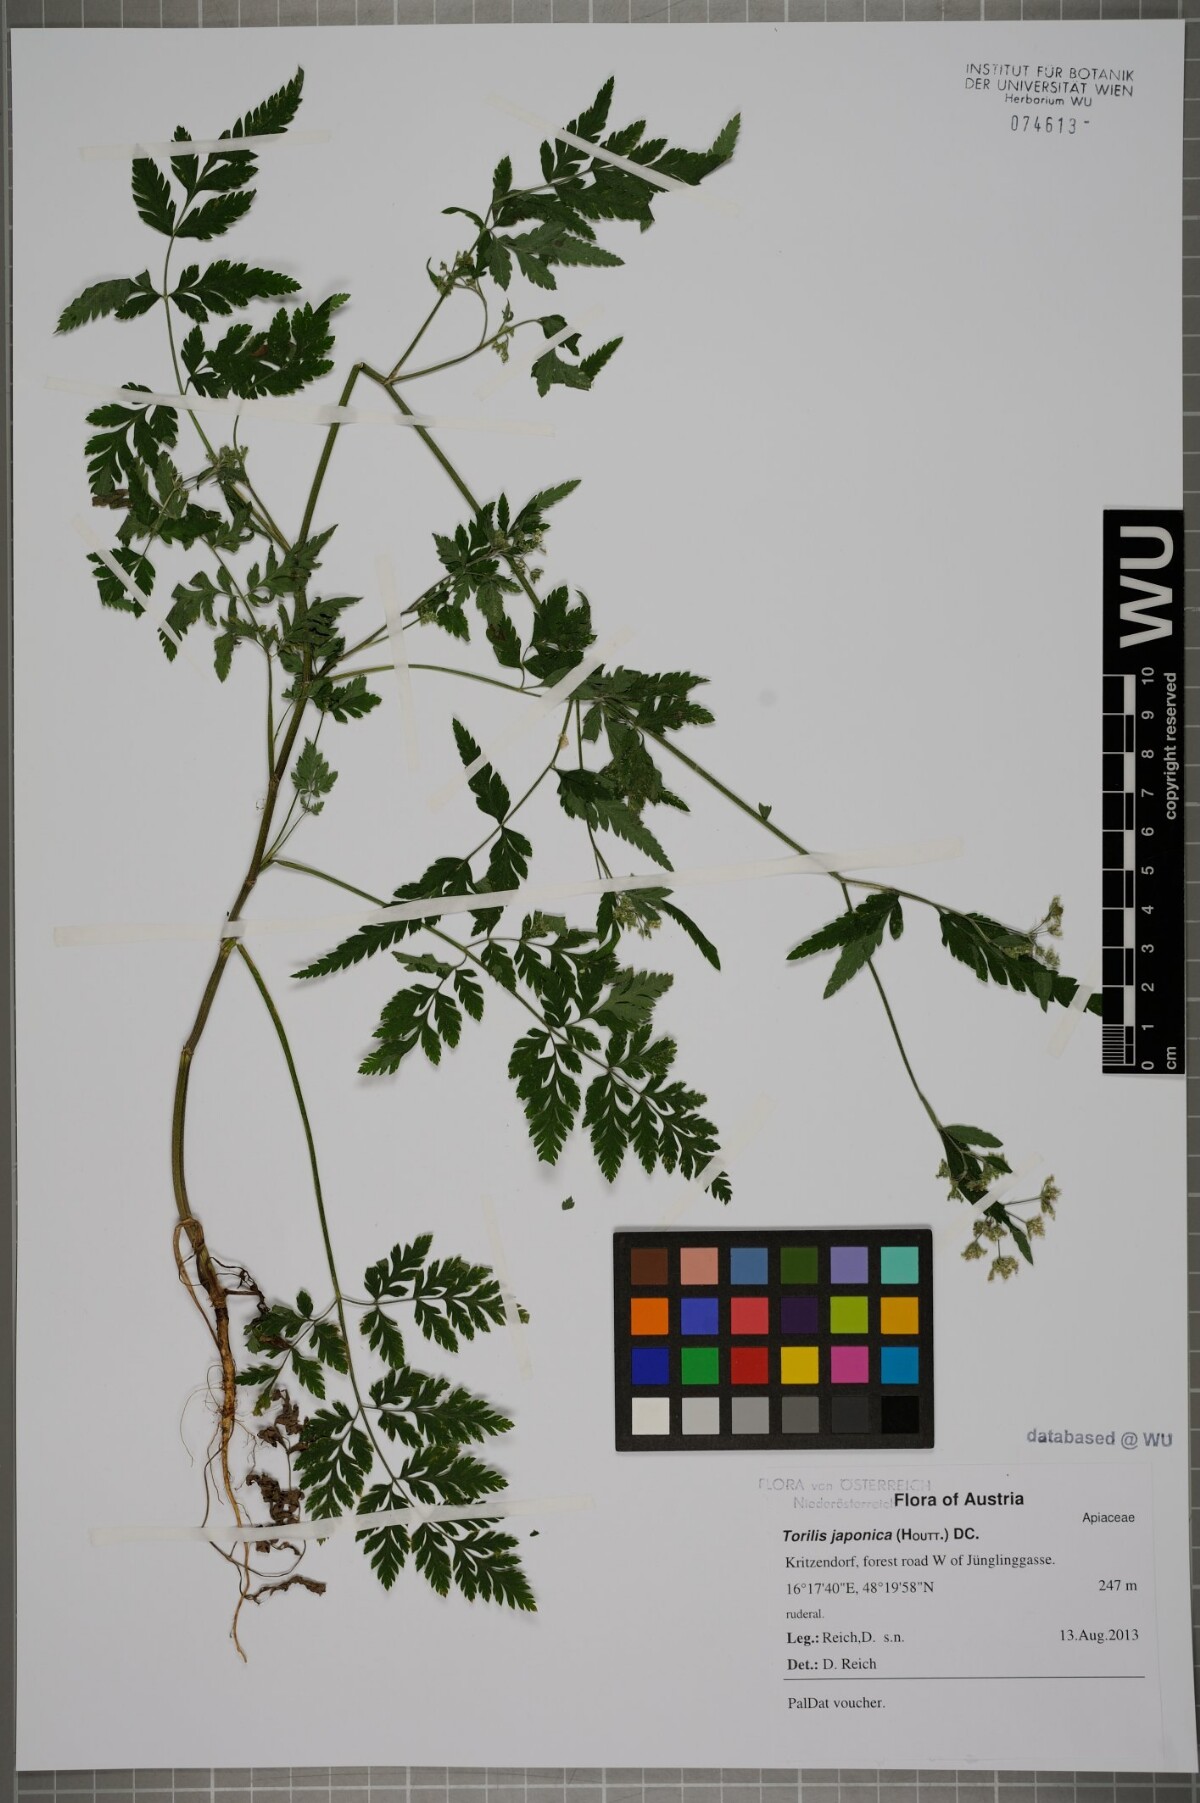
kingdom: Plantae
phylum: Tracheophyta
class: Magnoliopsida
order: Apiales
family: Apiaceae
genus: Torilis
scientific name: Torilis japonica
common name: Upright hedge-parsley
